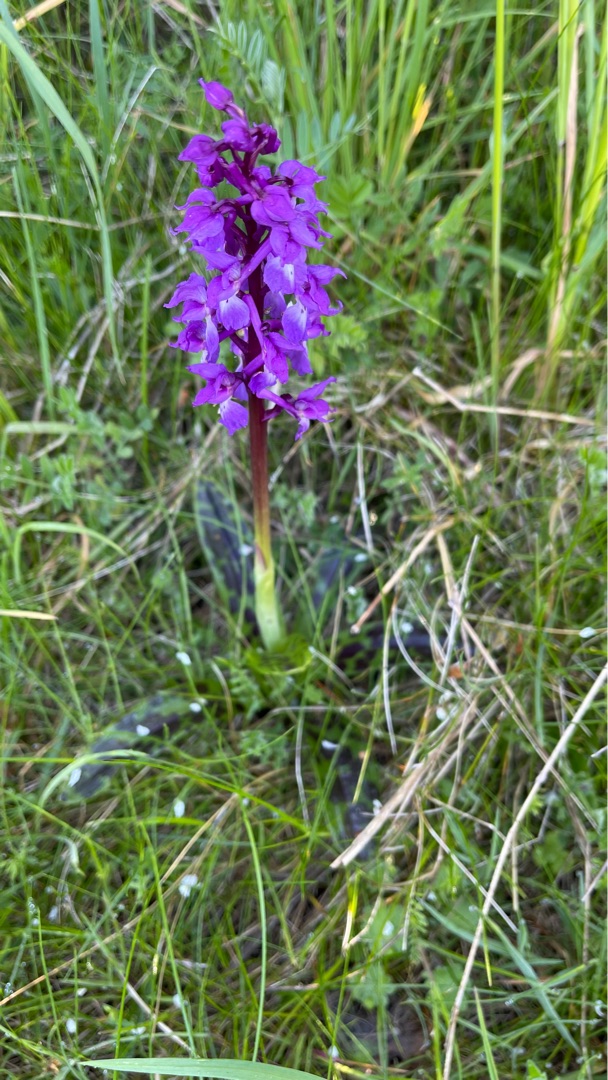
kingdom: Plantae
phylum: Tracheophyta
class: Liliopsida
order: Asparagales
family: Orchidaceae
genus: Orchis
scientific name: Orchis mascula
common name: Tyndakset gøgeurt
